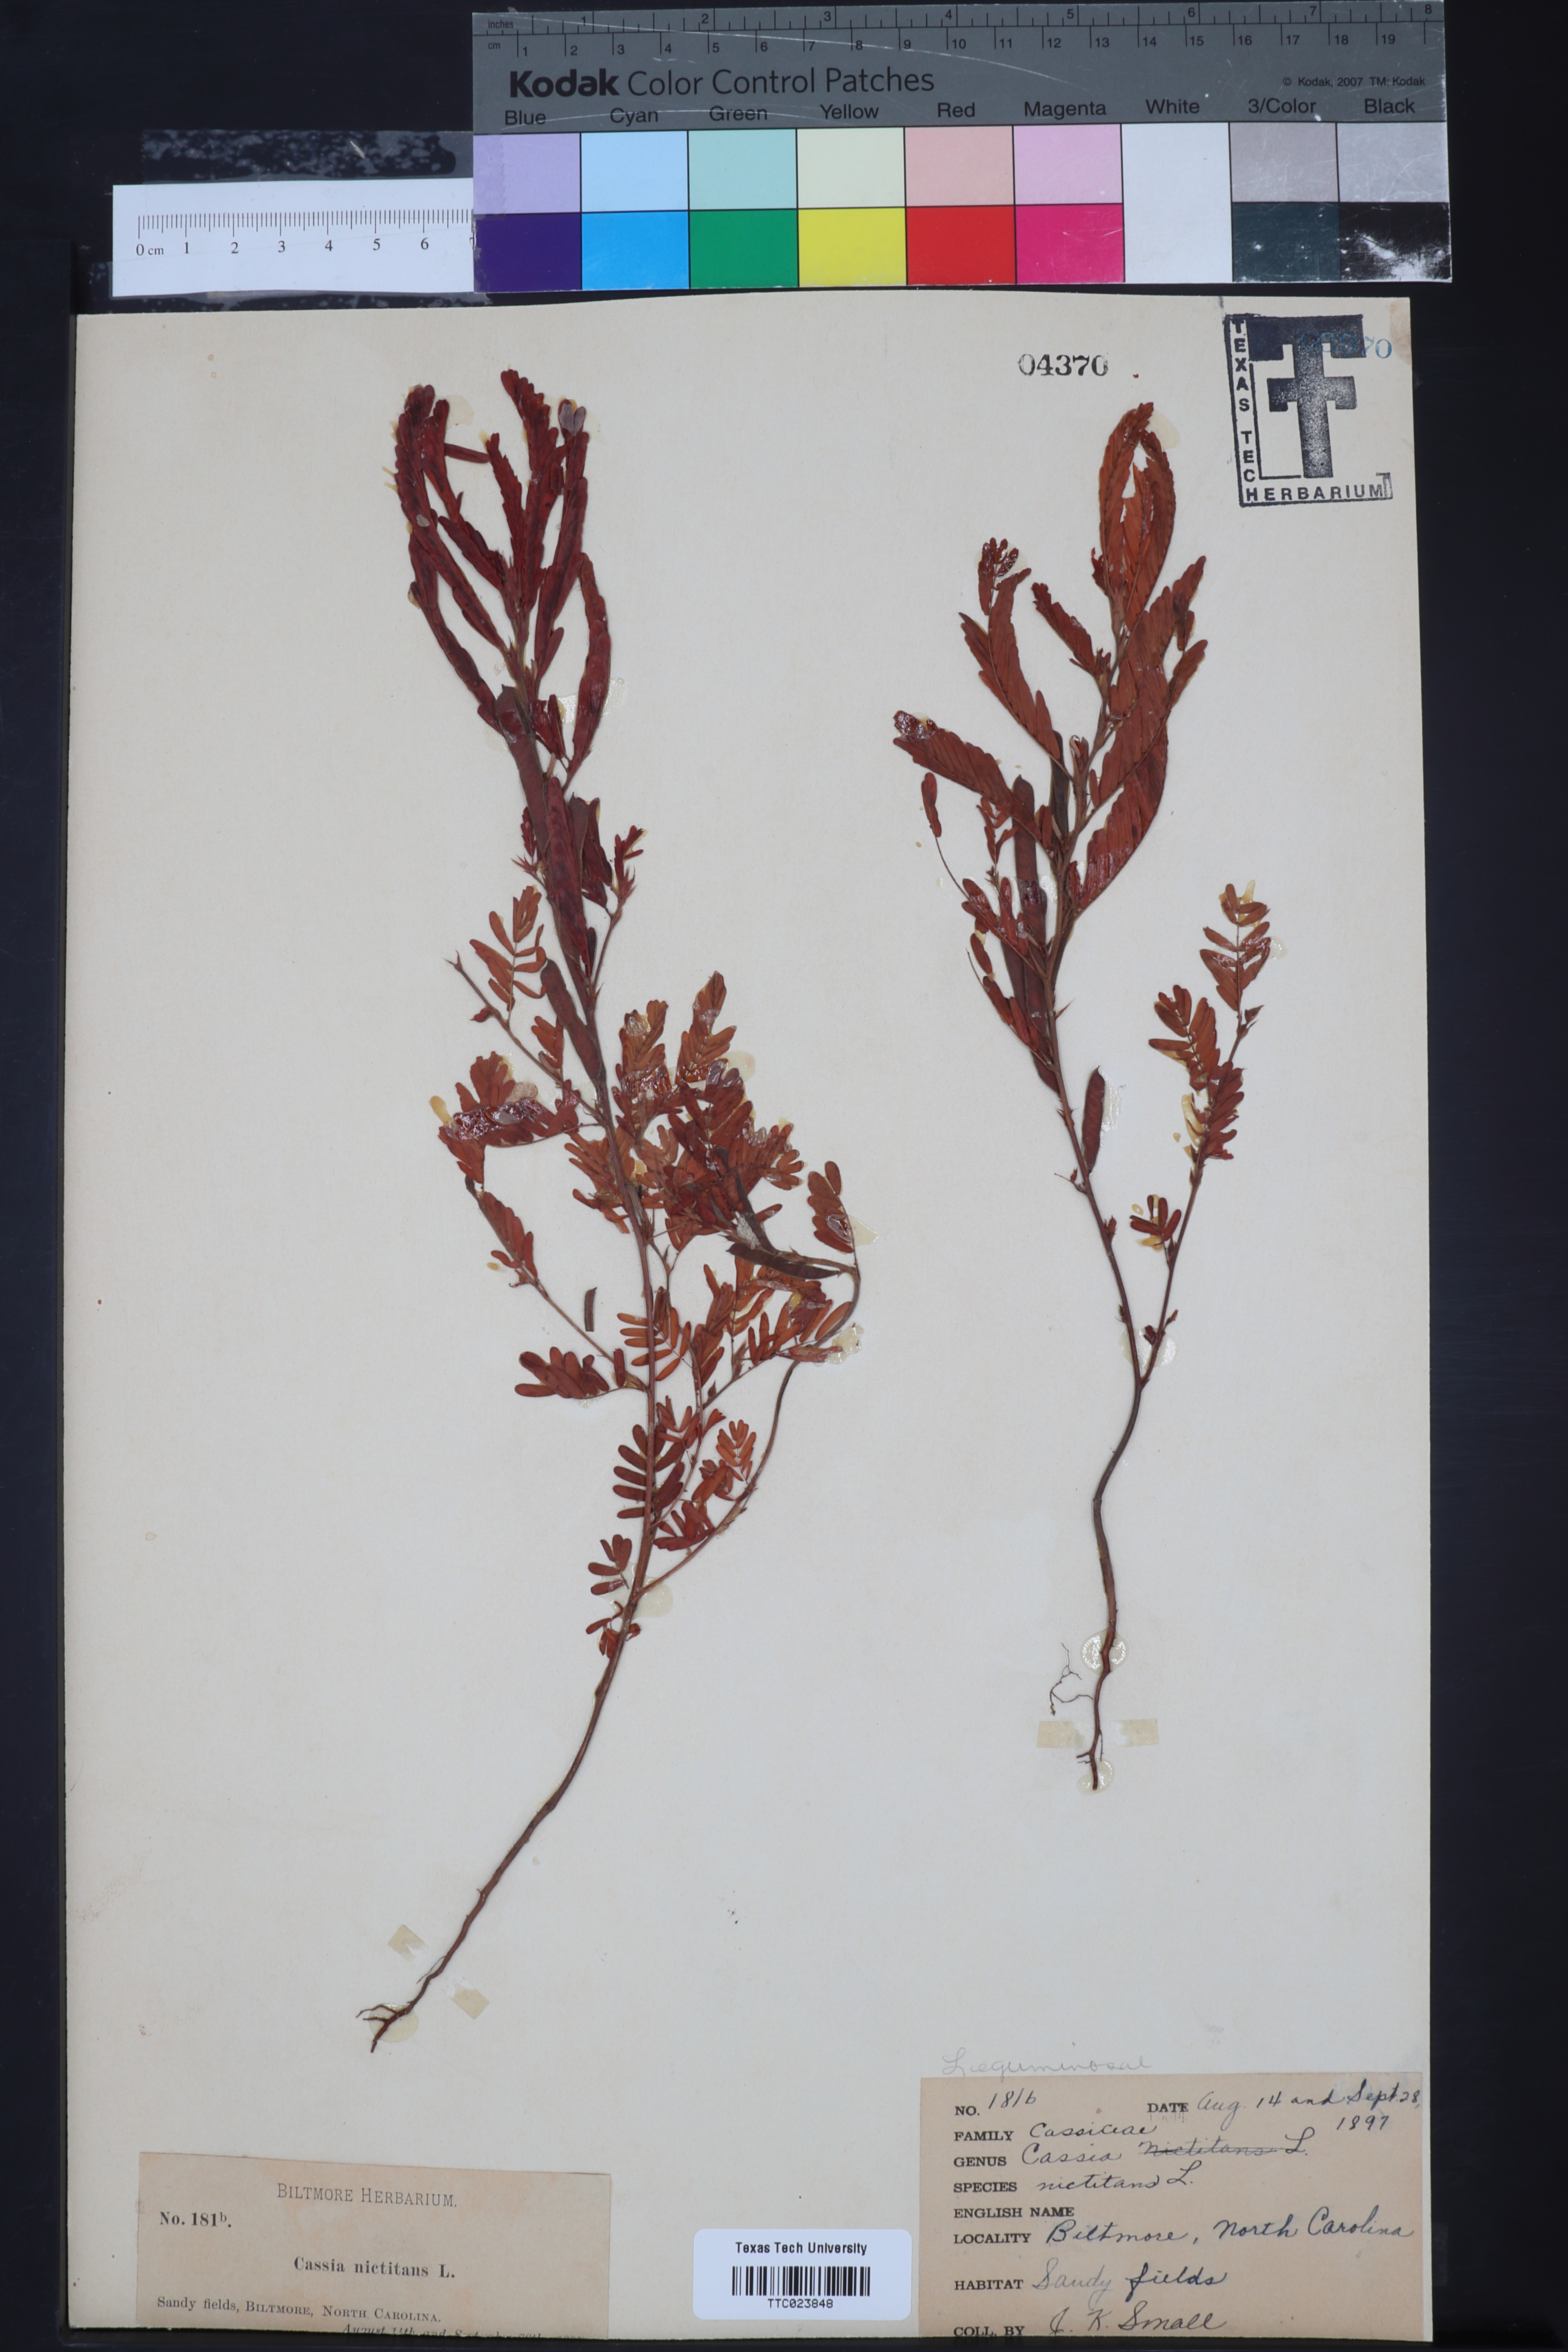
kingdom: Plantae
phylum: Tracheophyta
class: Magnoliopsida
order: Fabales
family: Fabaceae
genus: Chamaecrista
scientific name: Chamaecrista nictitans
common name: Sensitive cassia
